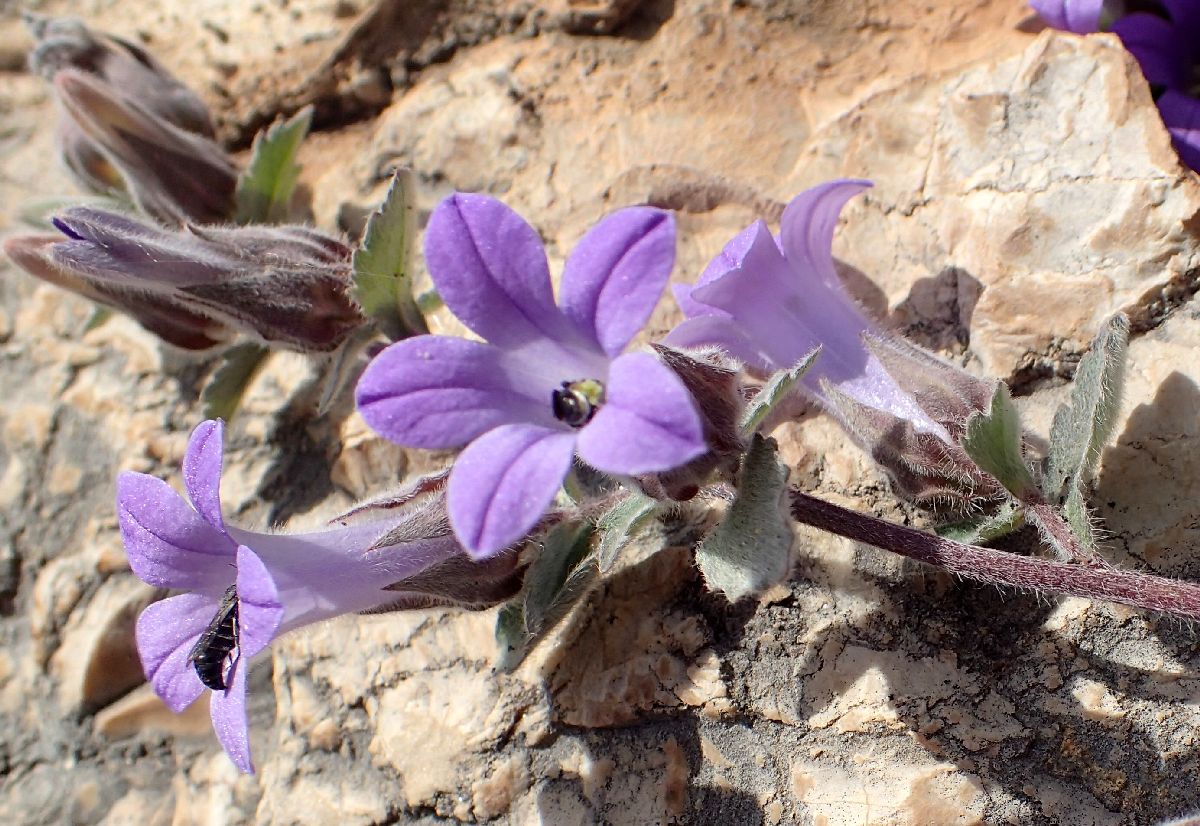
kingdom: Plantae
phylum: Tracheophyta
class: Magnoliopsida
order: Asterales
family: Campanulaceae
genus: Campanula
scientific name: Campanula topaliana
